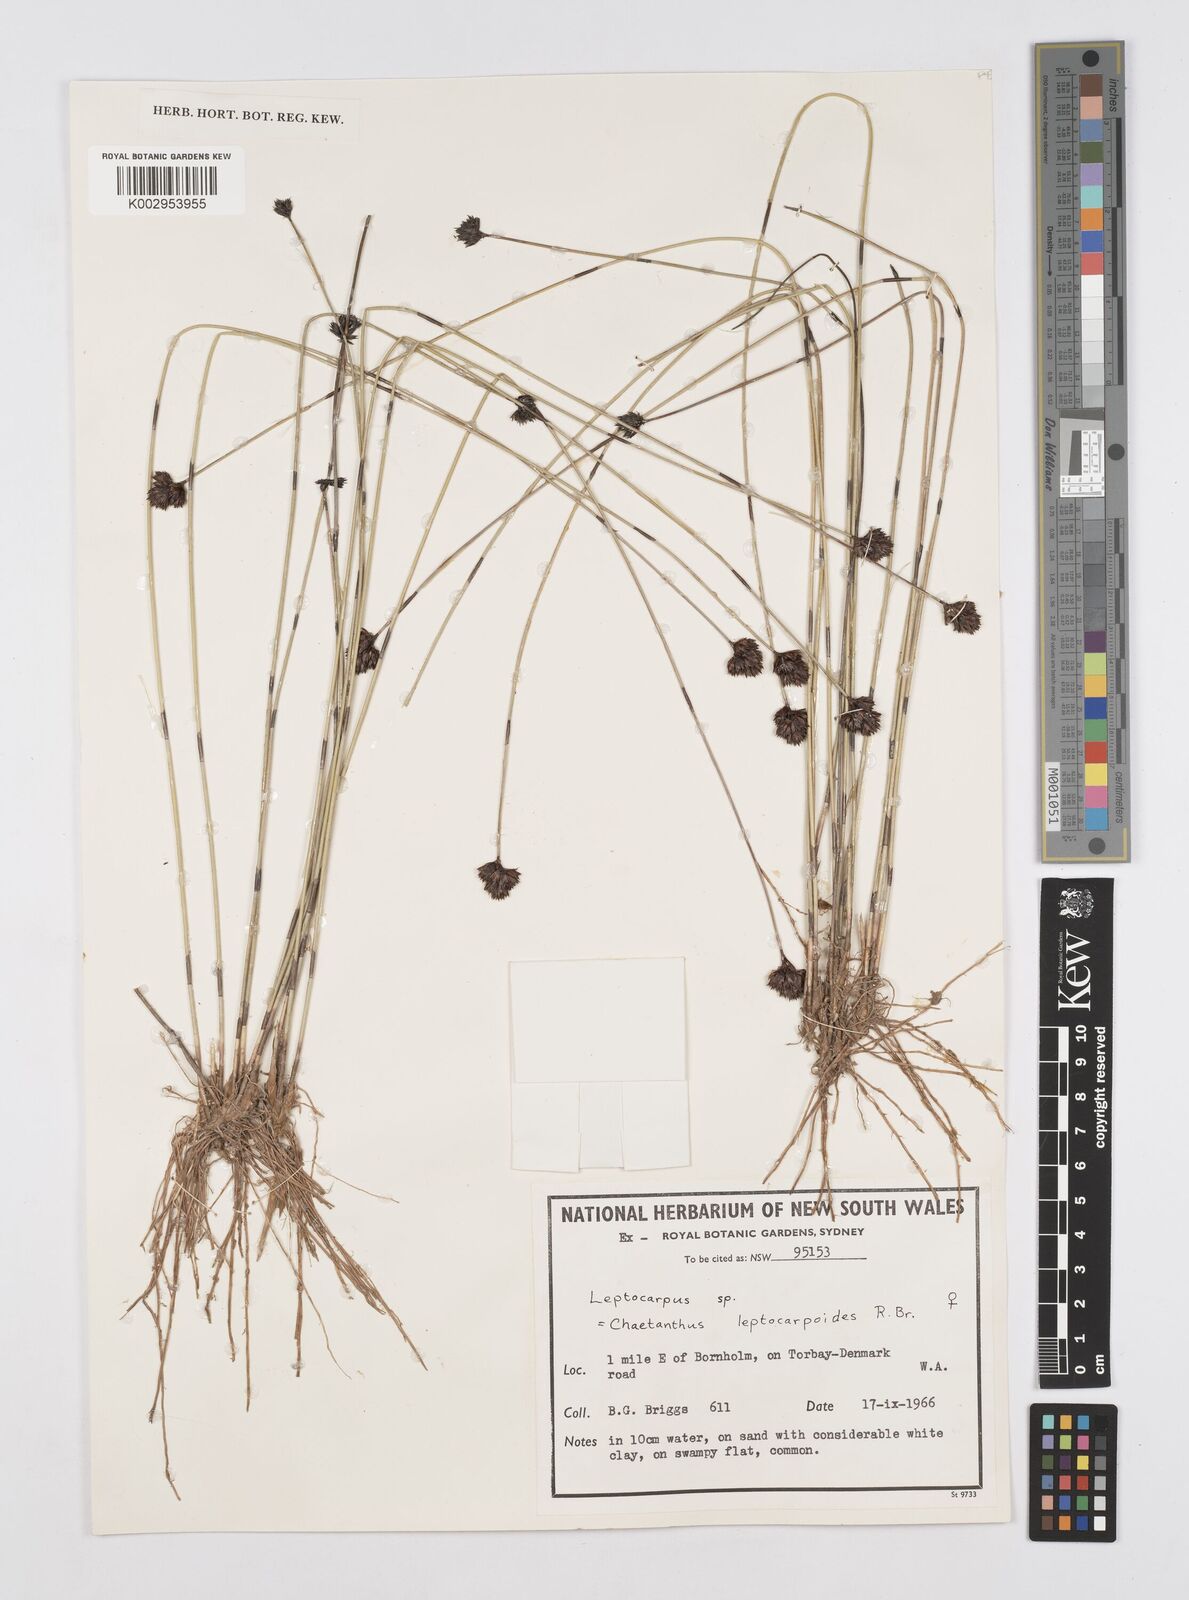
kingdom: Plantae
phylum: Tracheophyta
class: Liliopsida
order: Poales
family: Restionaceae
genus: Chaetanthus
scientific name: Chaetanthus leptocarpoides
